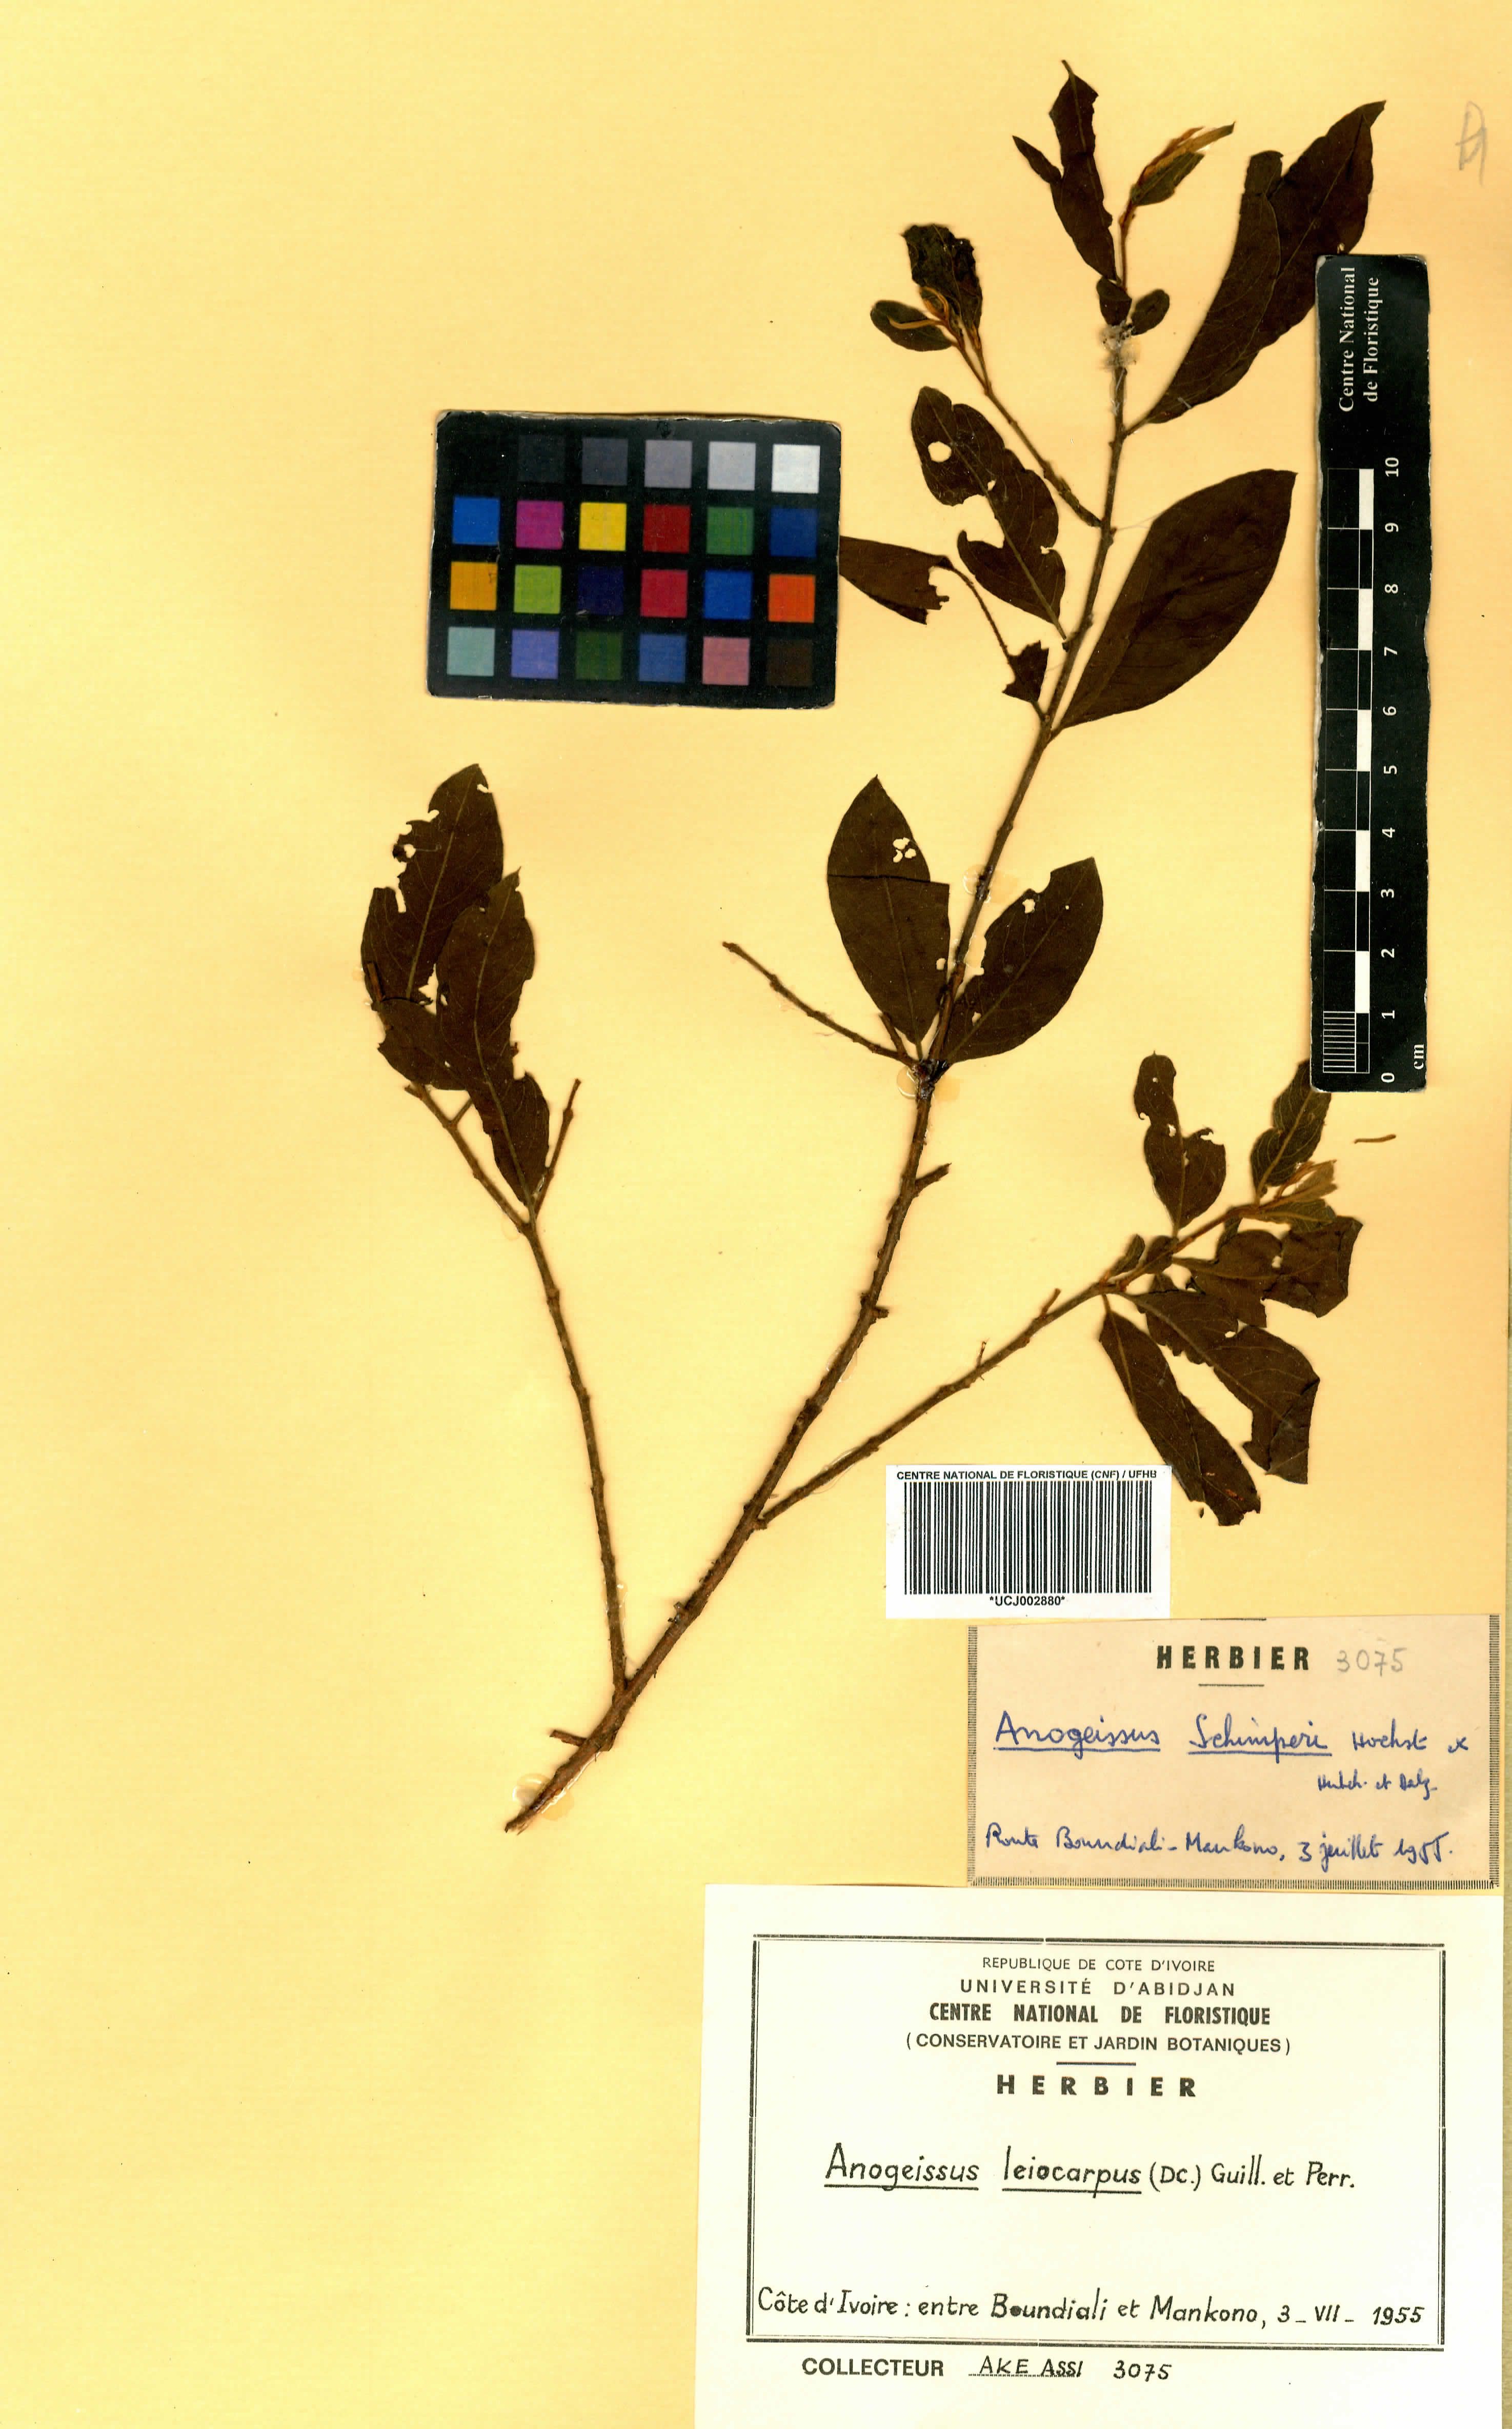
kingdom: Plantae
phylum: Tracheophyta
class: Magnoliopsida
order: Myrtales
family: Combretaceae
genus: Terminalia
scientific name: Terminalia leiocarpa
